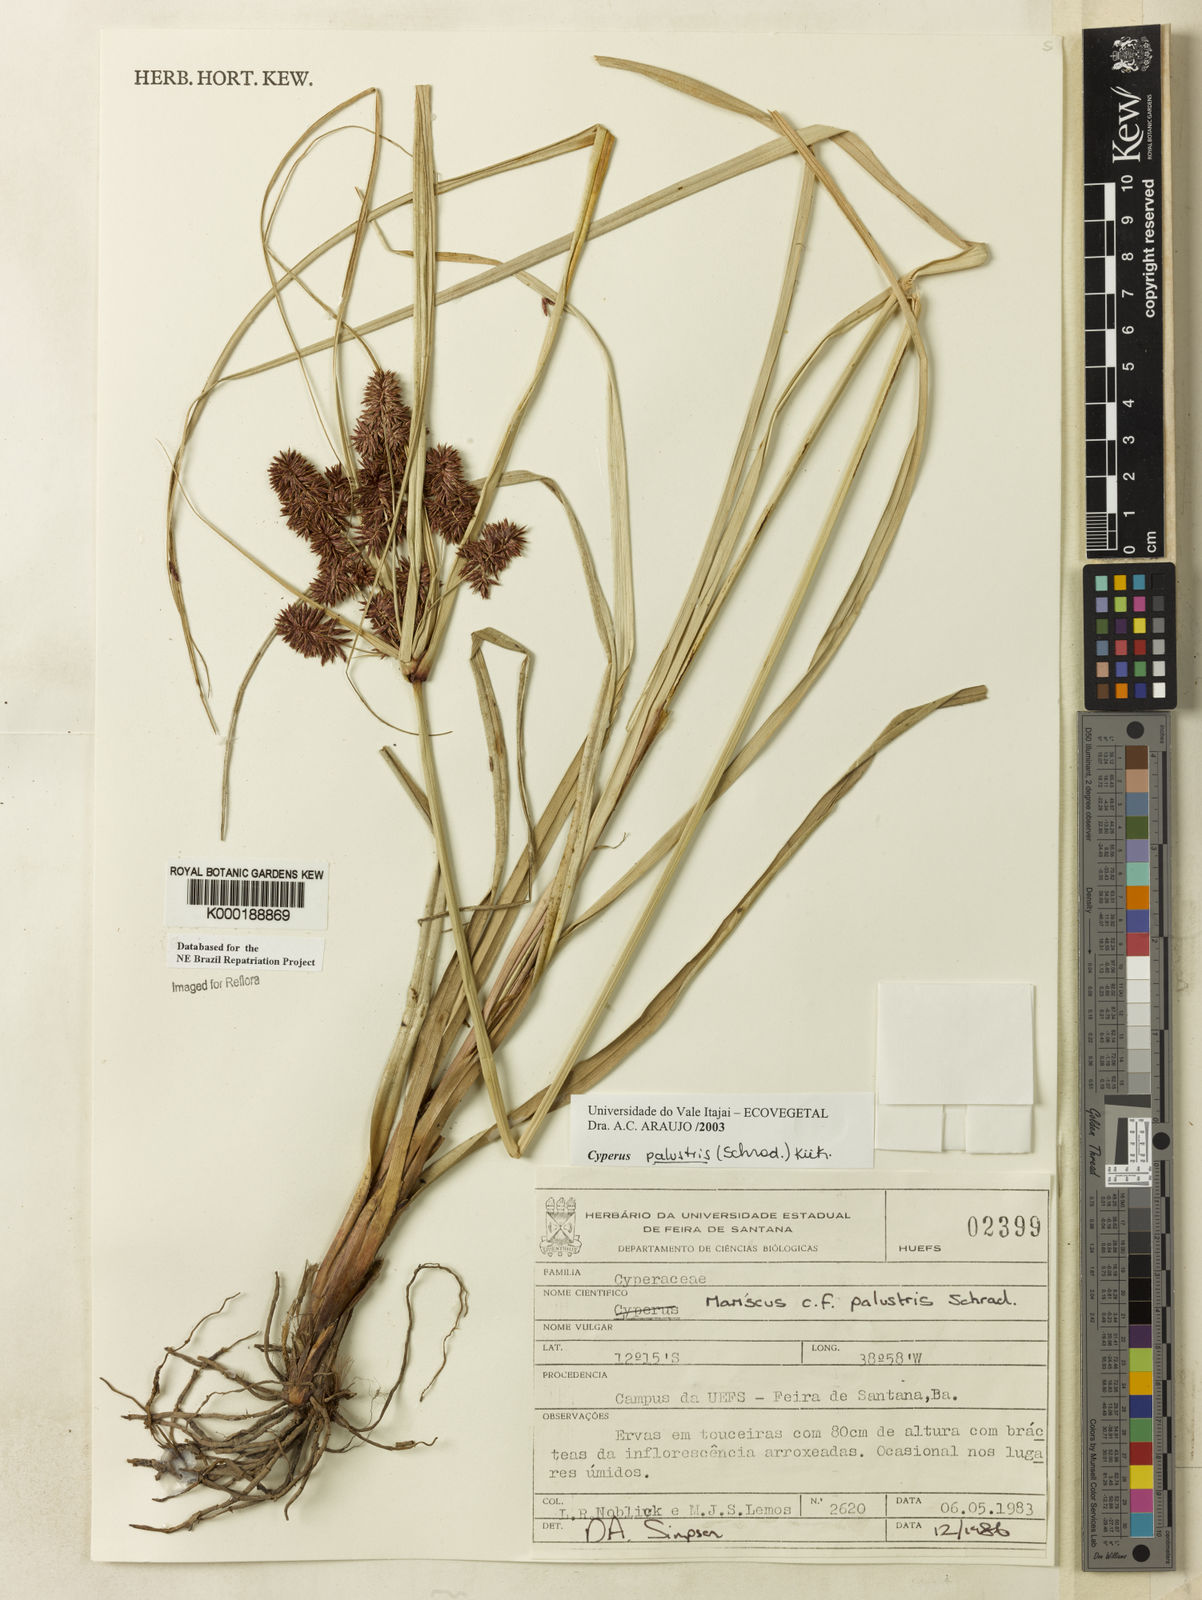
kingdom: Plantae
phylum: Tracheophyta
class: Liliopsida
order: Poales
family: Cyperaceae
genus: Cyperus
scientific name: Cyperus meyerianus
